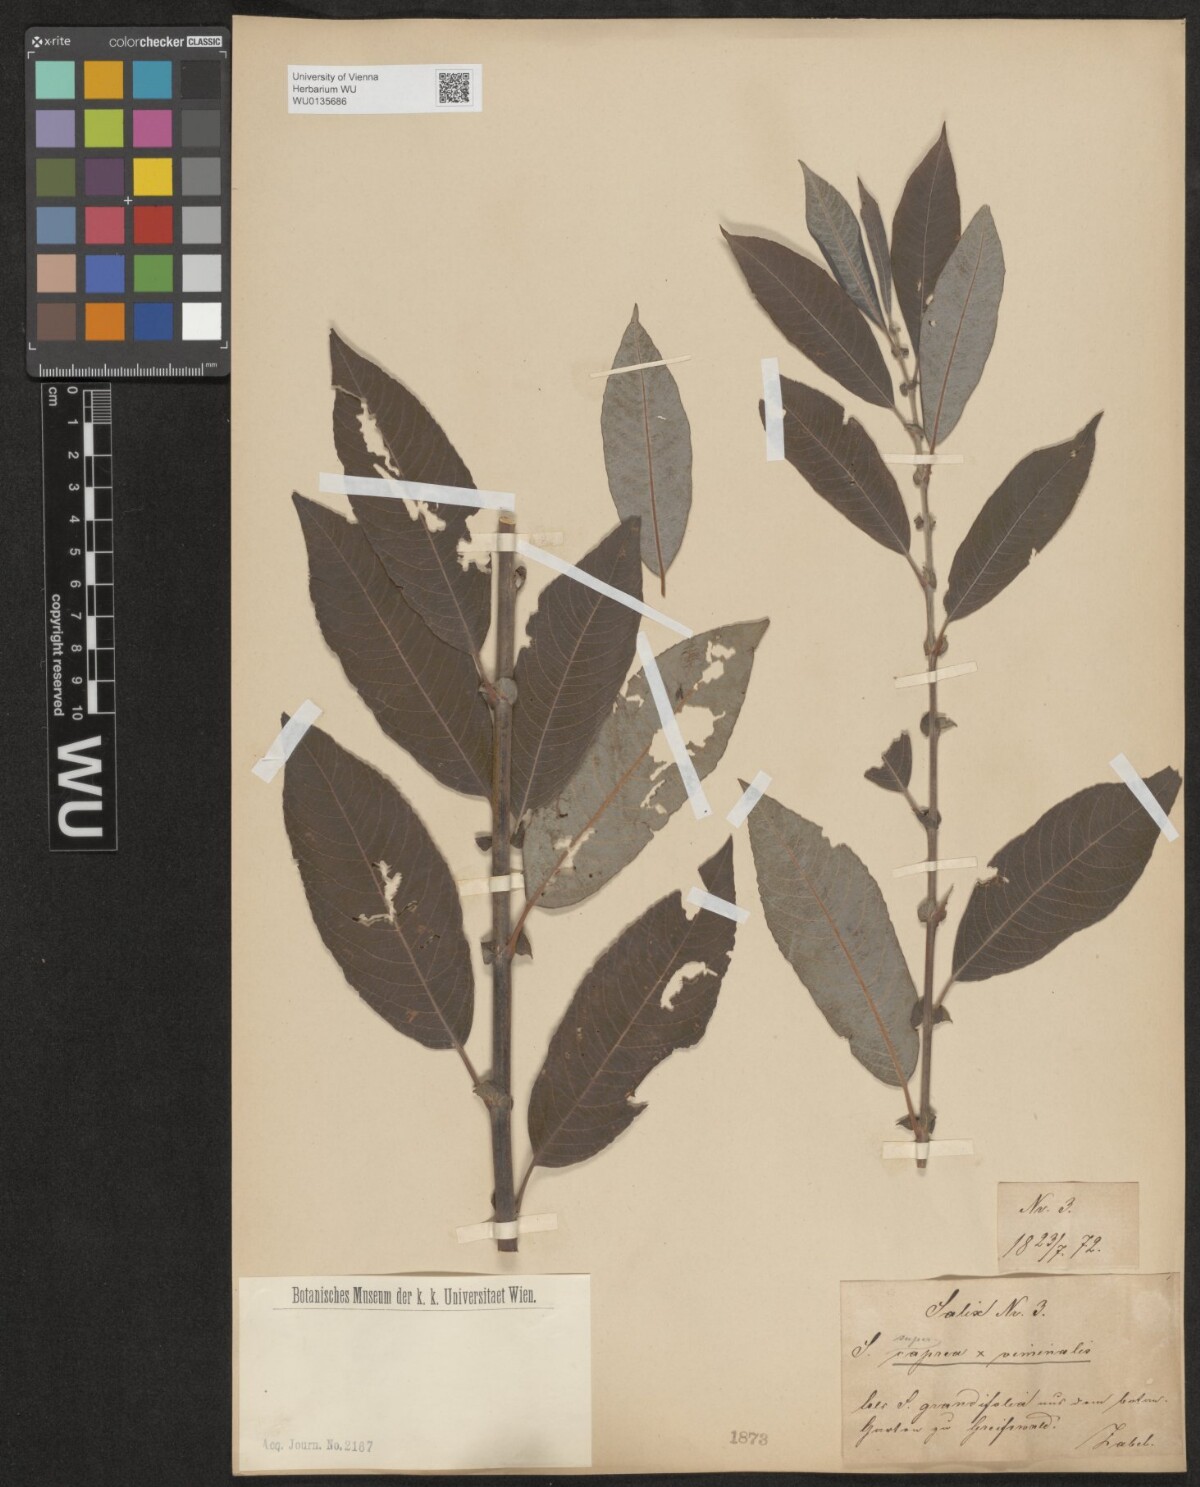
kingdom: Plantae
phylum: Tracheophyta
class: Magnoliopsida
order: Malpighiales
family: Salicaceae
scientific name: Salicaceae
